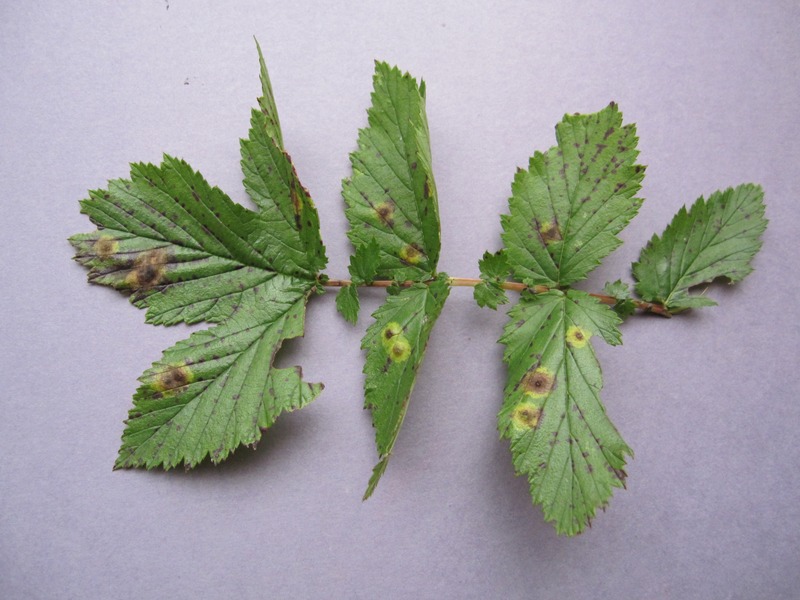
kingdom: Fungi
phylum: Ascomycota
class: Dothideomycetes
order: Pleosporales
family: Didymellaceae
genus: Epicoccum
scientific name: Epicoccum nigrum
